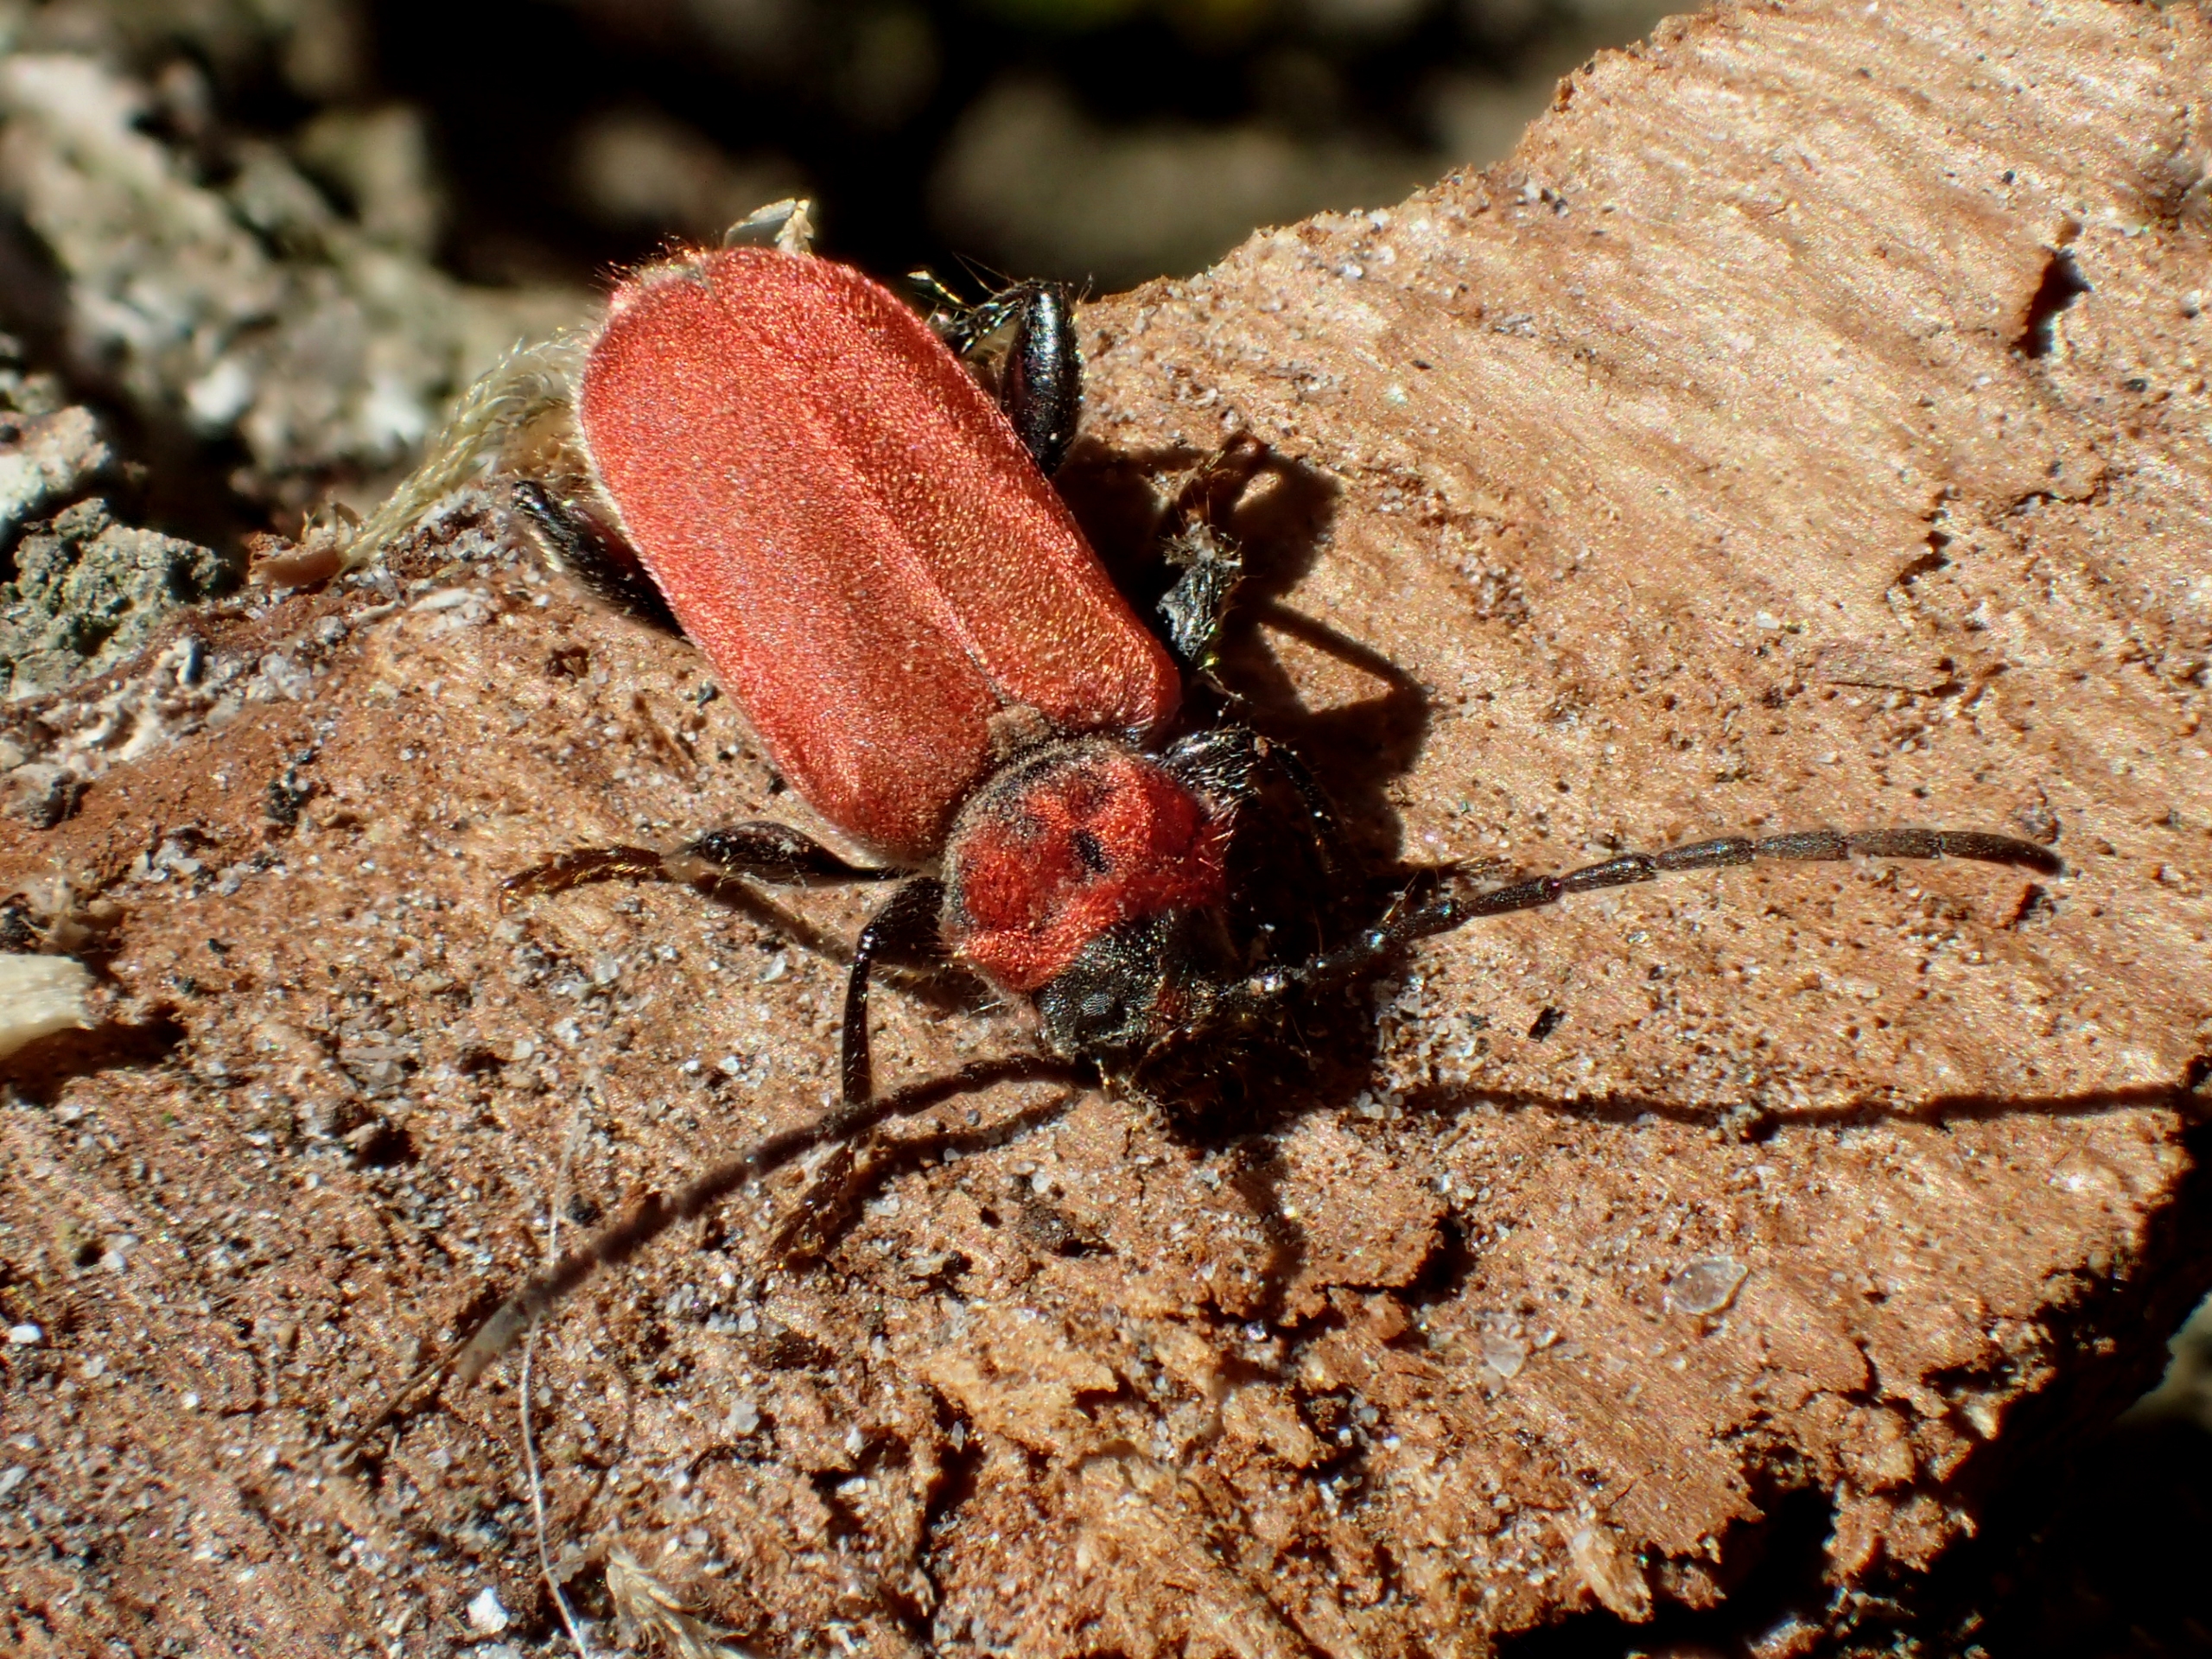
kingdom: Animalia
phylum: Arthropoda
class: Insecta
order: Coleoptera
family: Cerambycidae
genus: Pyrrhidium
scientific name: Pyrrhidium sanguineum
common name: Rød skivebuk
